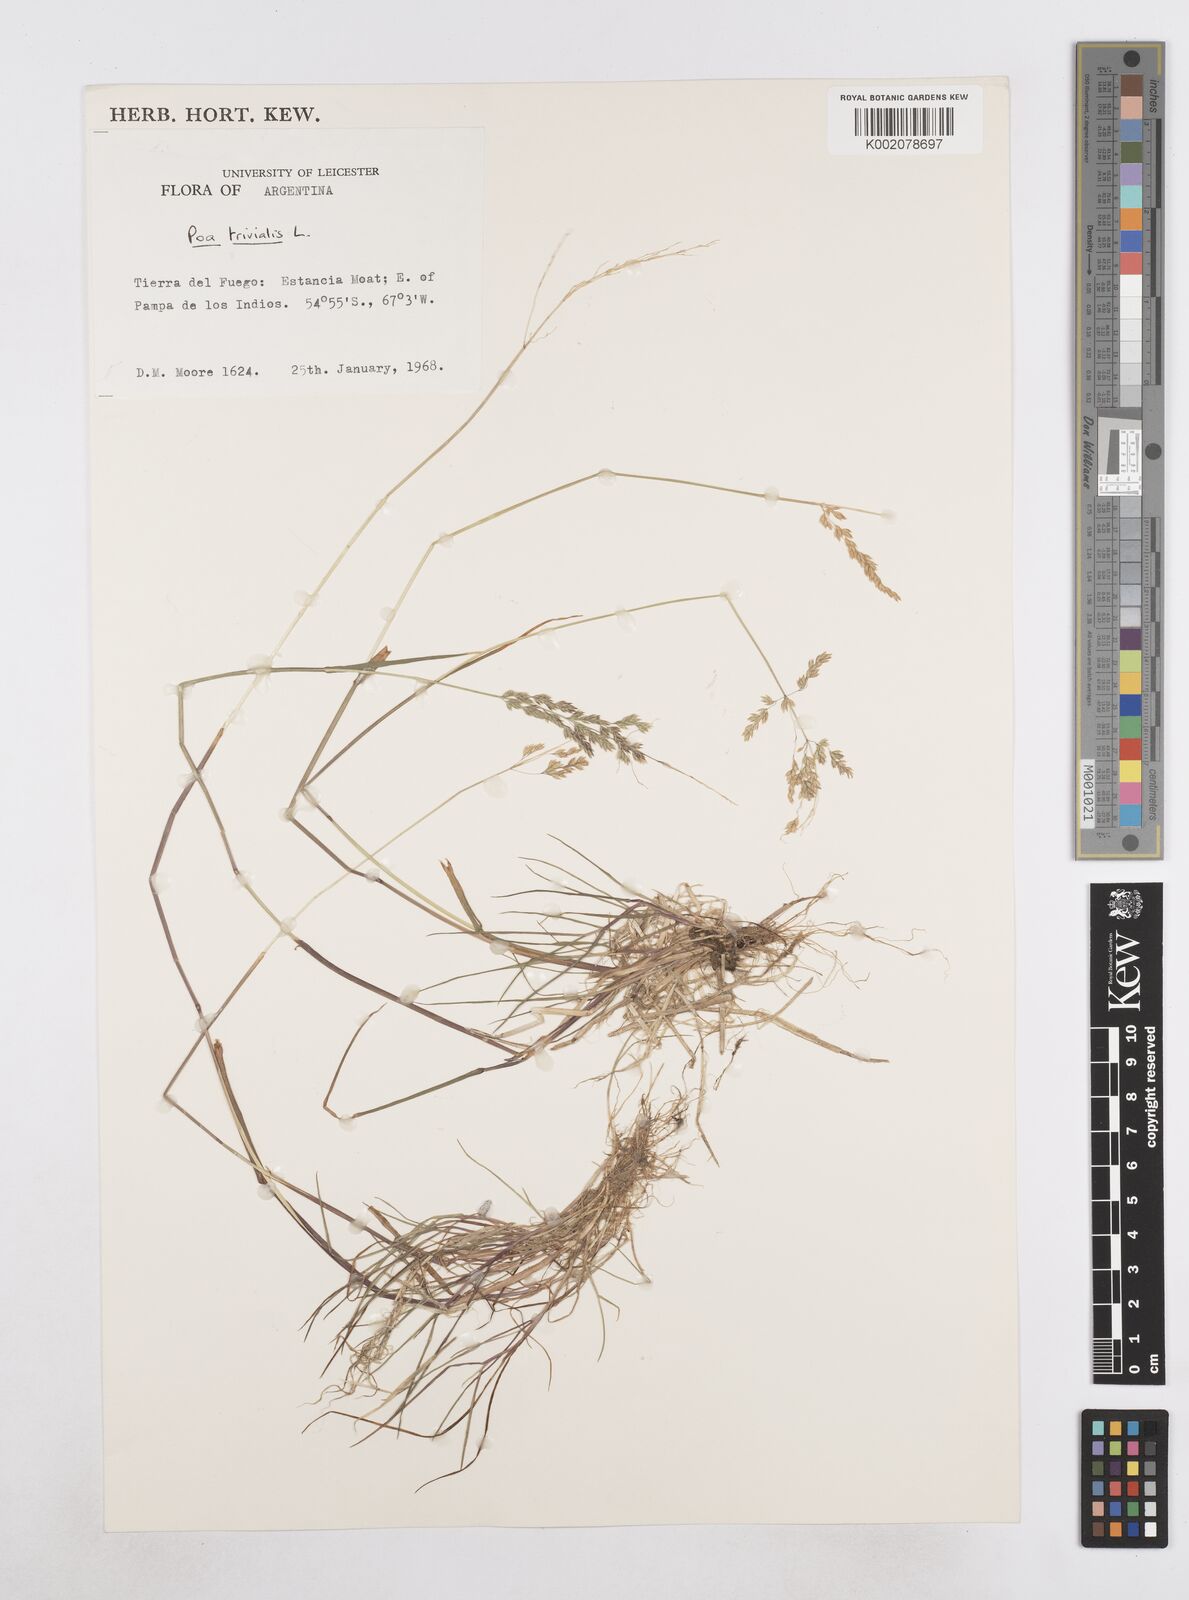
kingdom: Plantae
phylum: Tracheophyta
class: Liliopsida
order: Poales
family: Poaceae
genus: Poa
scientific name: Poa trivialis
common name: Rough bluegrass
